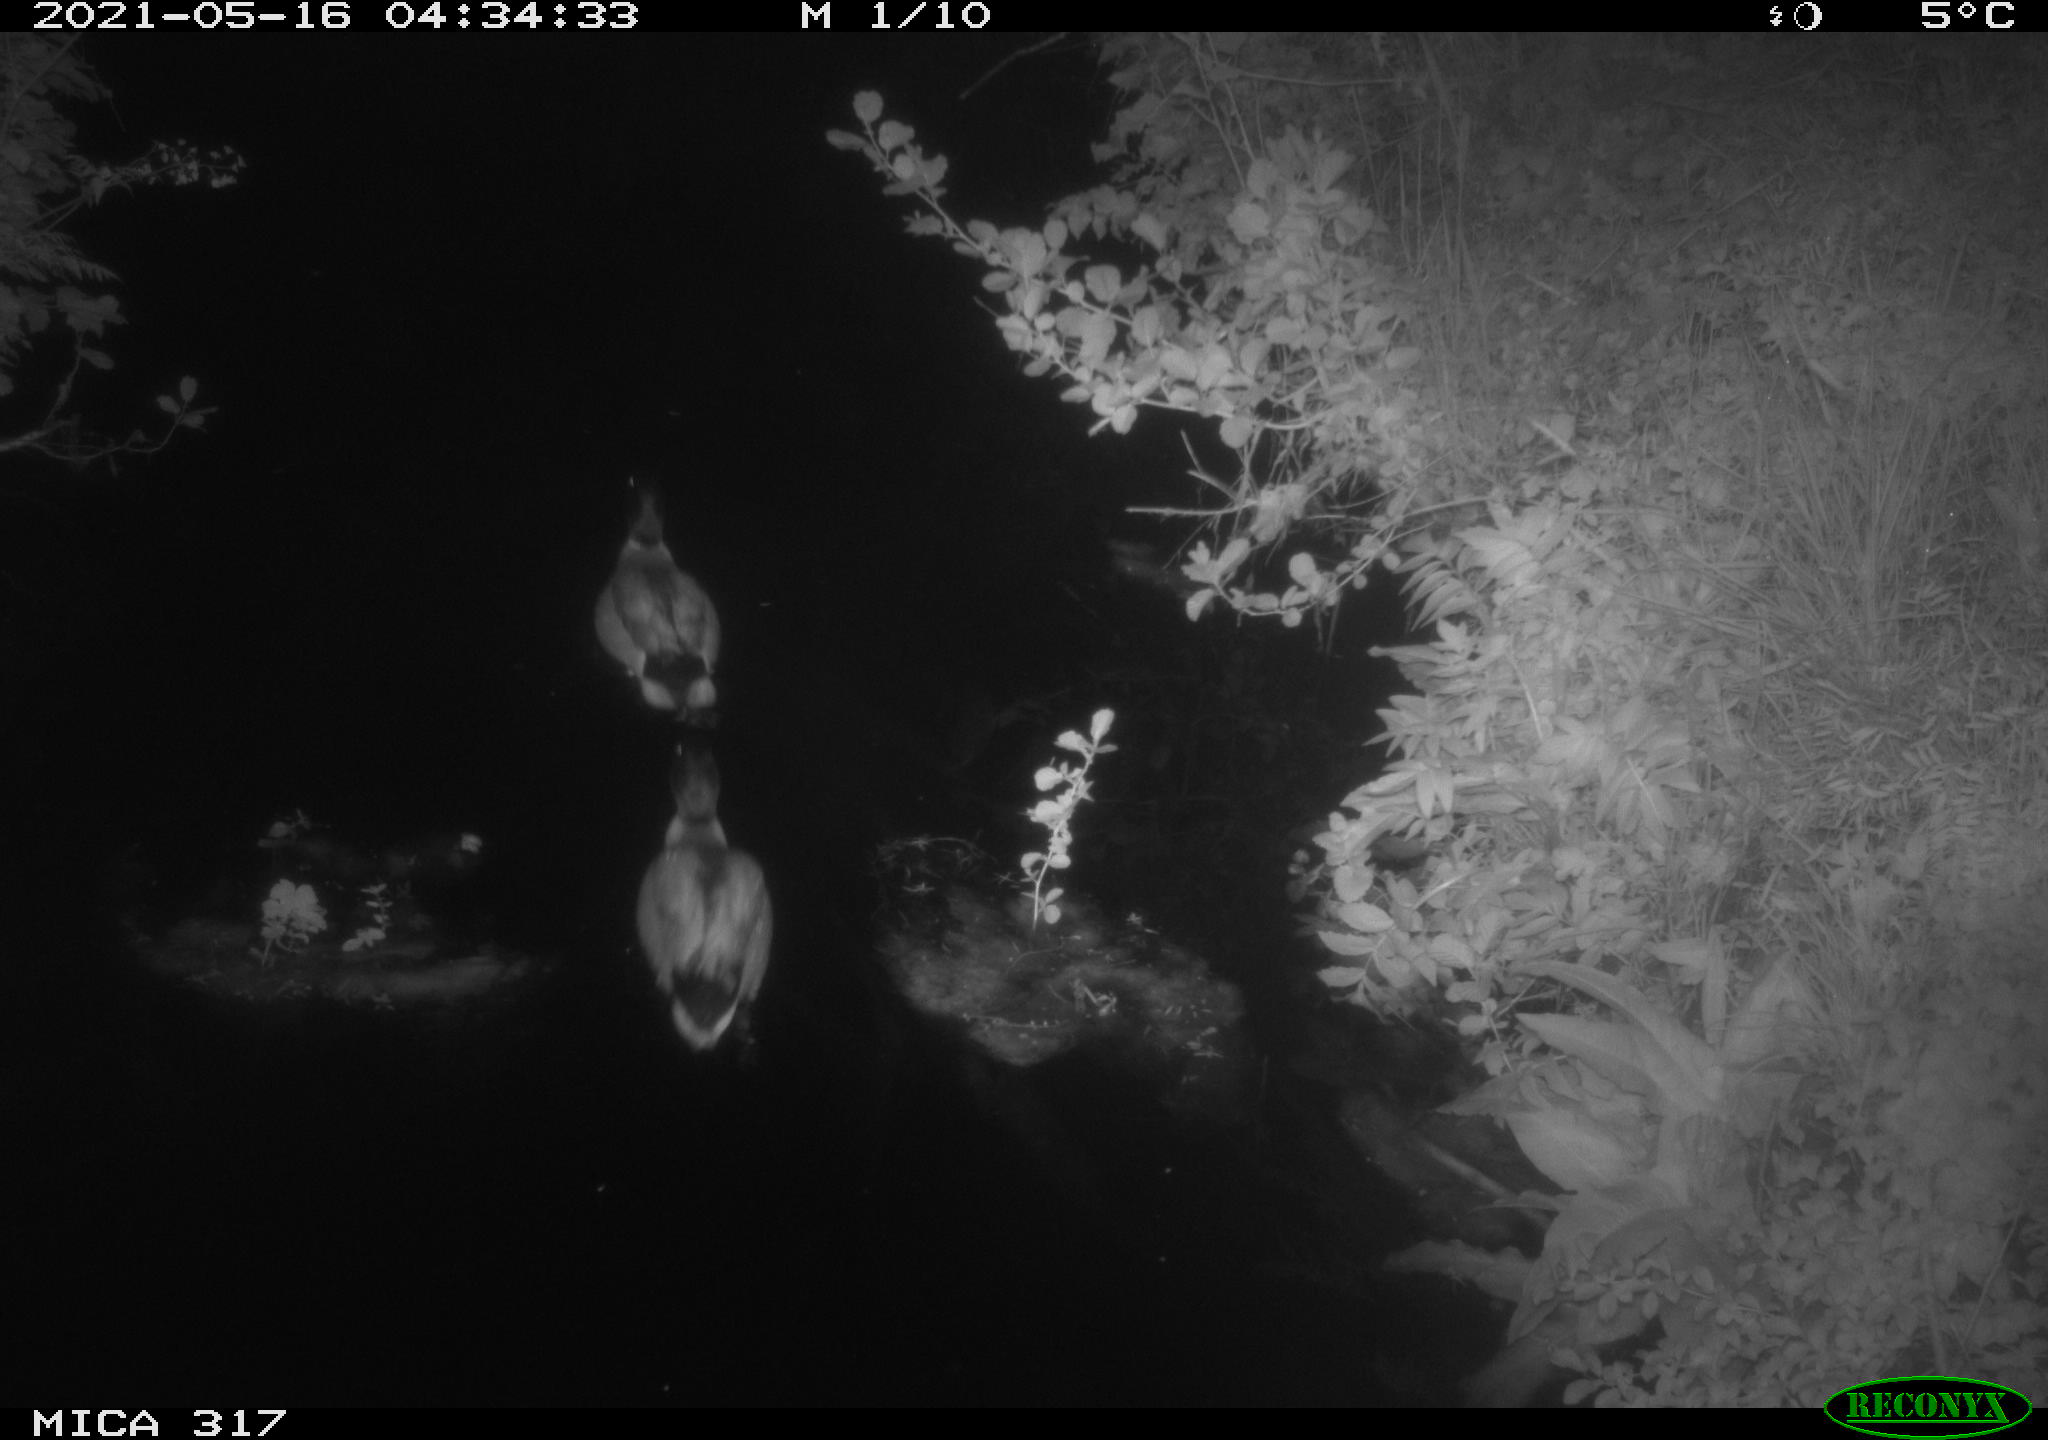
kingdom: Animalia
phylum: Chordata
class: Aves
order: Anseriformes
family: Anatidae
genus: Anas
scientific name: Anas
